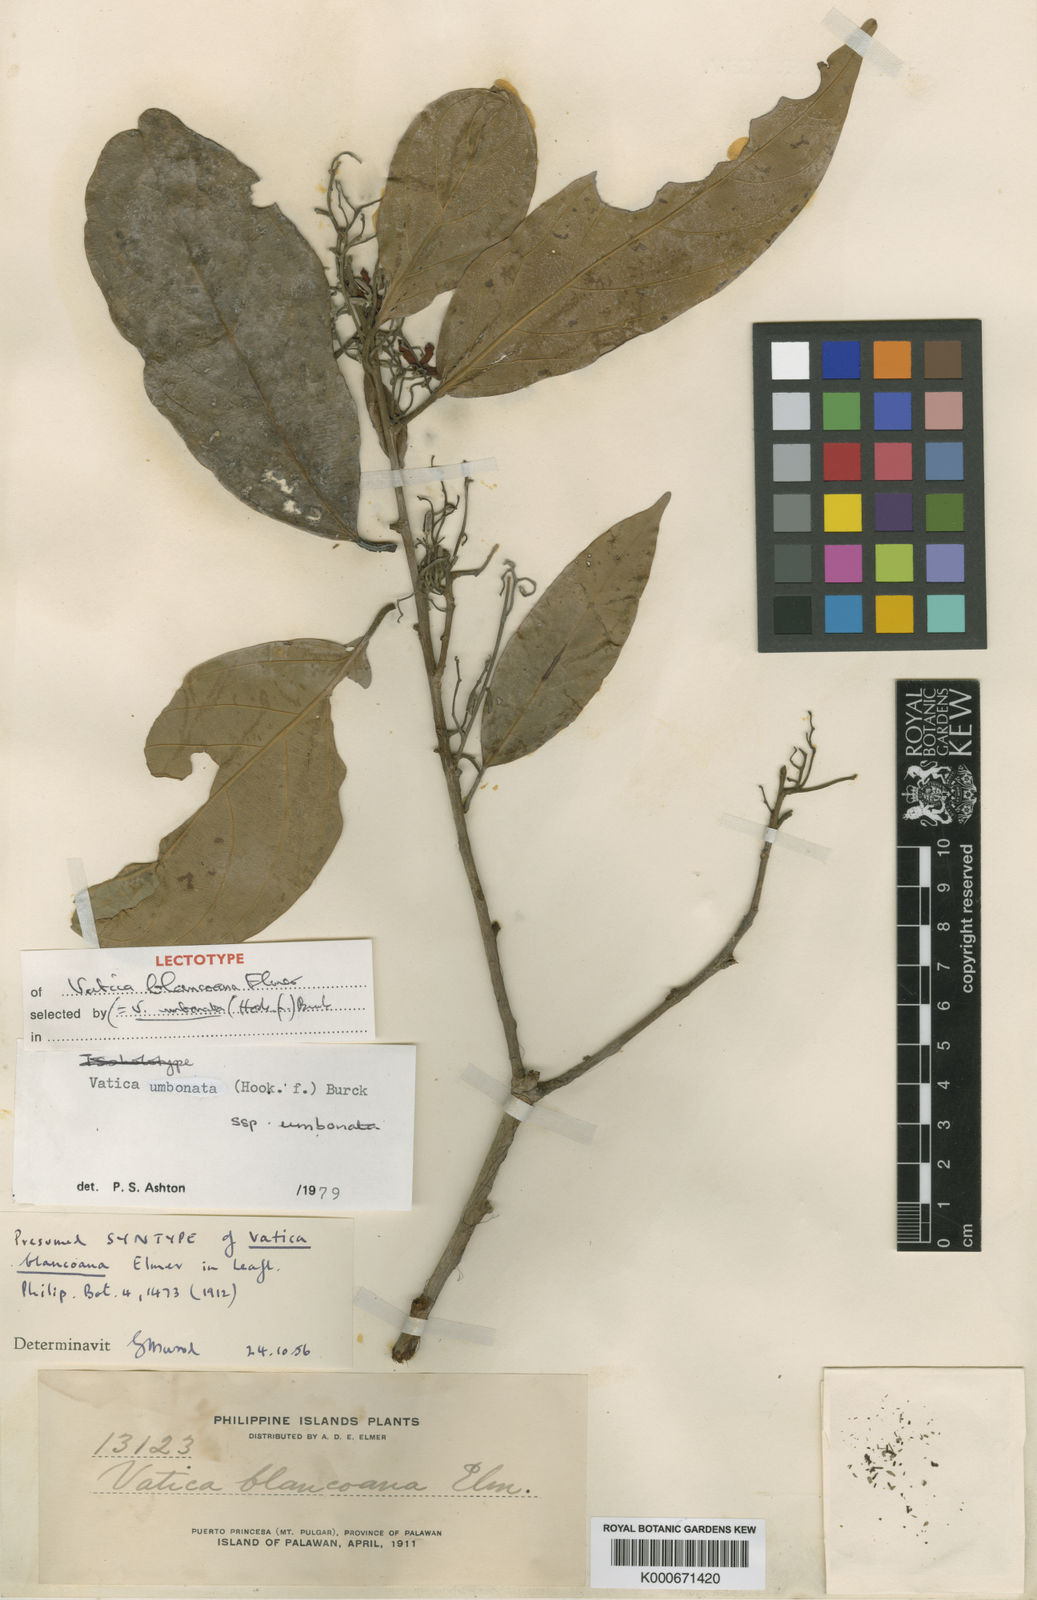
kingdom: Plantae
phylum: Tracheophyta
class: Magnoliopsida
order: Malvales
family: Dipterocarpaceae
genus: Vatica
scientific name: Vatica umbonata
